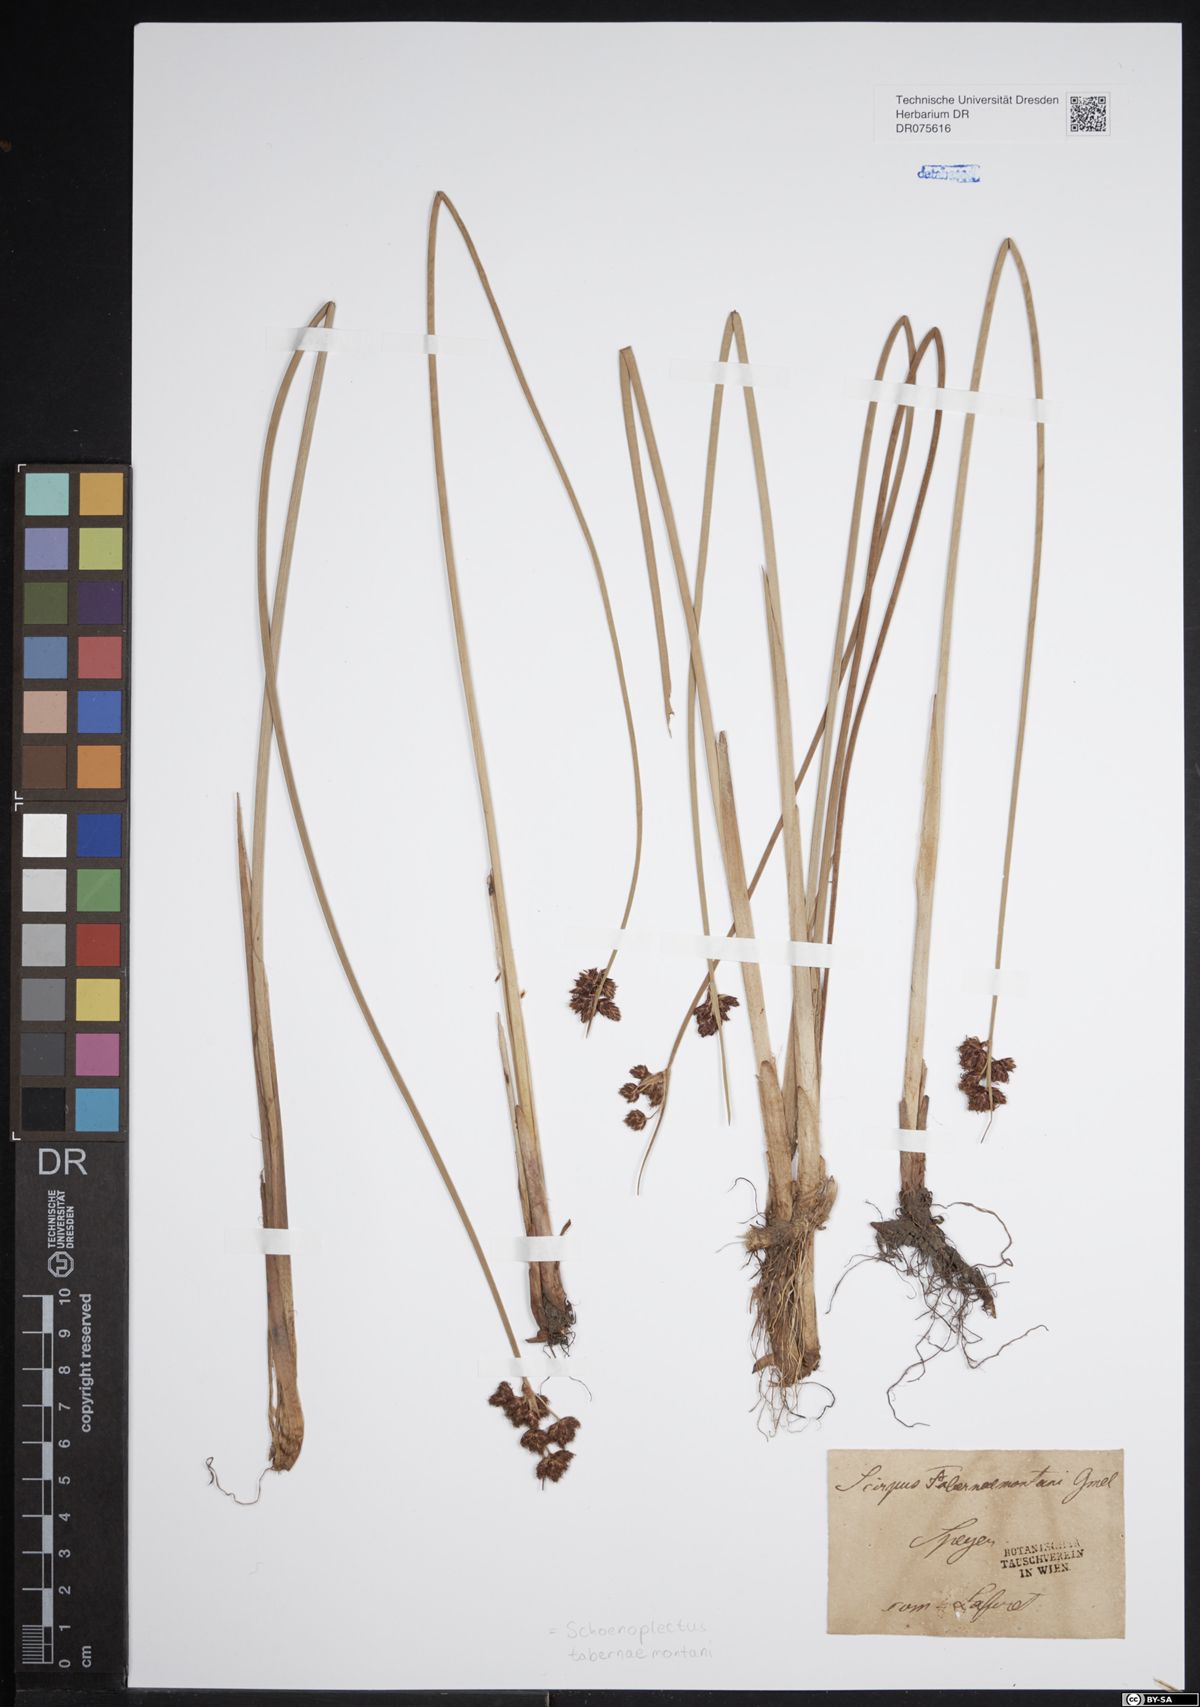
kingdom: Plantae
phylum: Tracheophyta
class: Liliopsida
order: Poales
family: Cyperaceae
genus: Schoenoplectus
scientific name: Schoenoplectus tabernaemontani
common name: Grey club-rush
